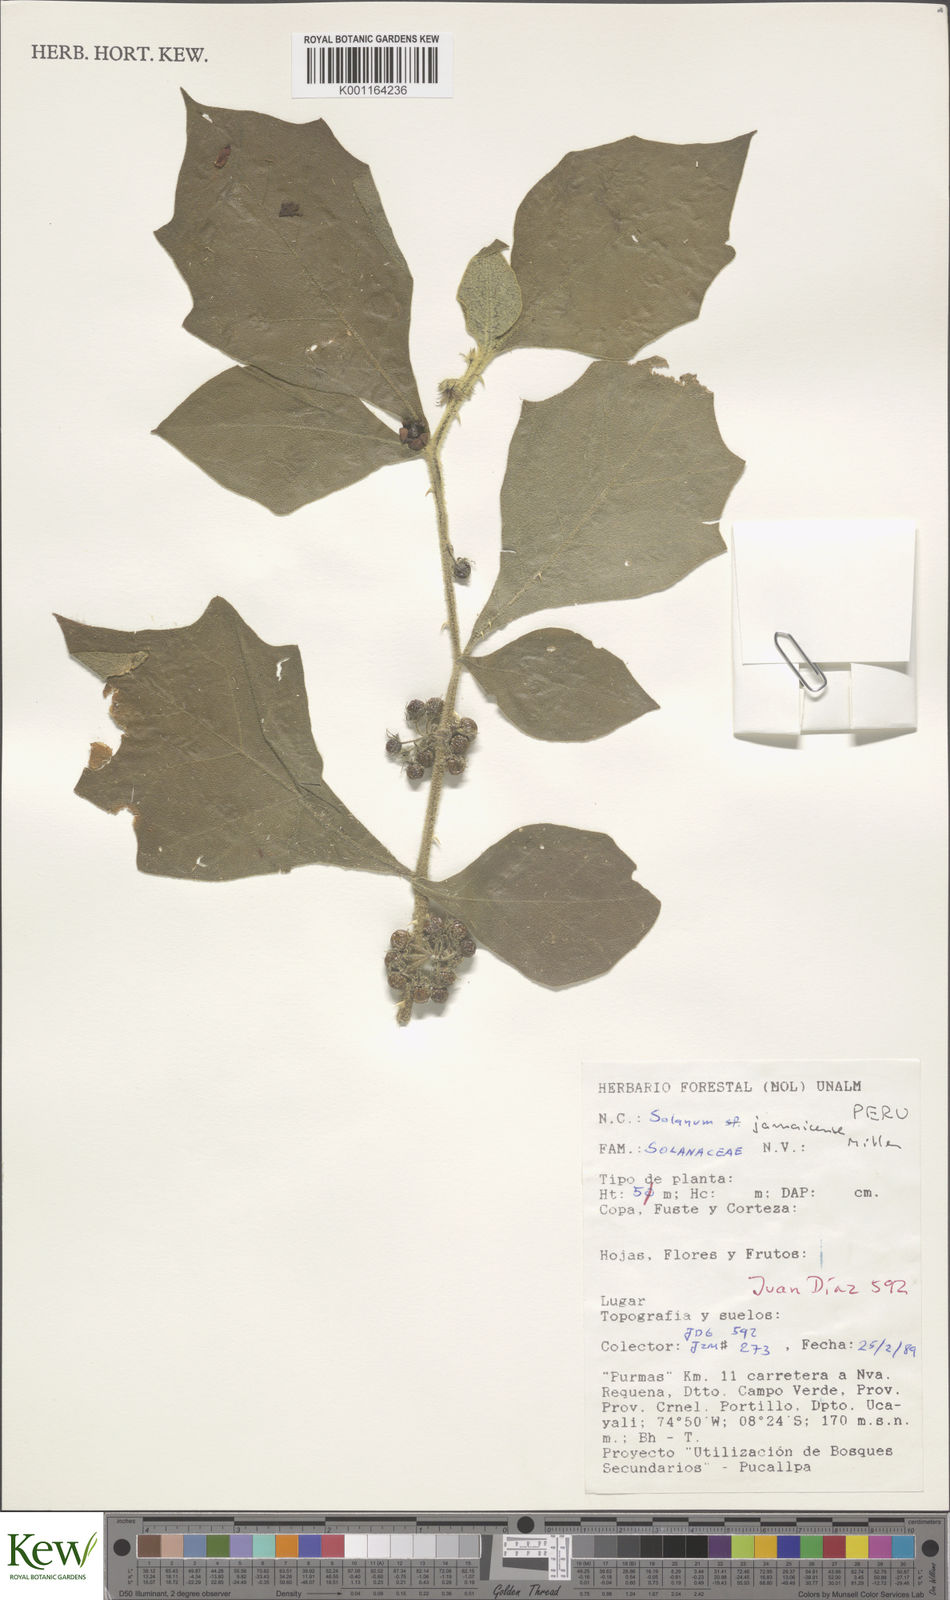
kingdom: Plantae
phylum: Tracheophyta
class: Magnoliopsida
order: Solanales
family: Solanaceae
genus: Solanum
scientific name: Solanum jamaicense
